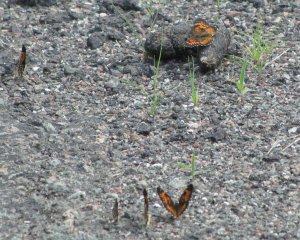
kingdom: Animalia
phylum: Arthropoda
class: Insecta
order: Lepidoptera
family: Nymphalidae
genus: Chlosyne
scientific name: Chlosyne harrisii
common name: Harris's Checkerspot
